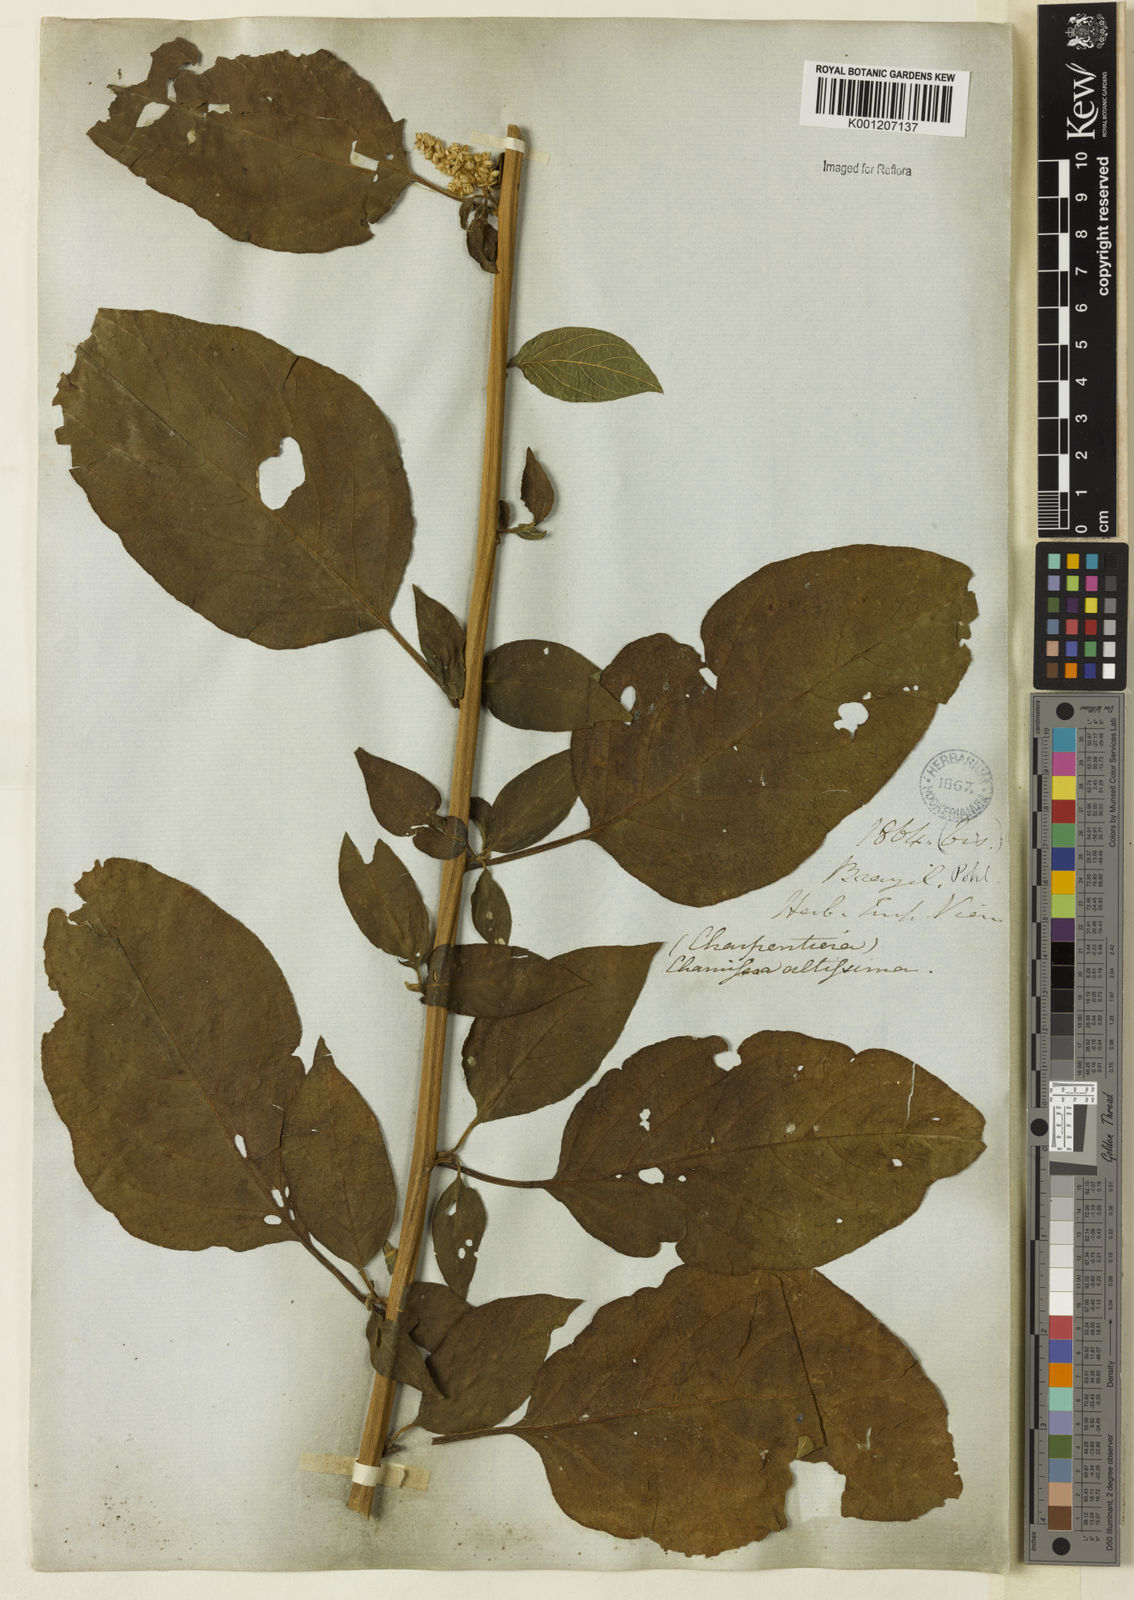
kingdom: Plantae
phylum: Tracheophyta
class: Magnoliopsida
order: Caryophyllales
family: Amaranthaceae
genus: Chamissoa
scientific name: Chamissoa altissima
